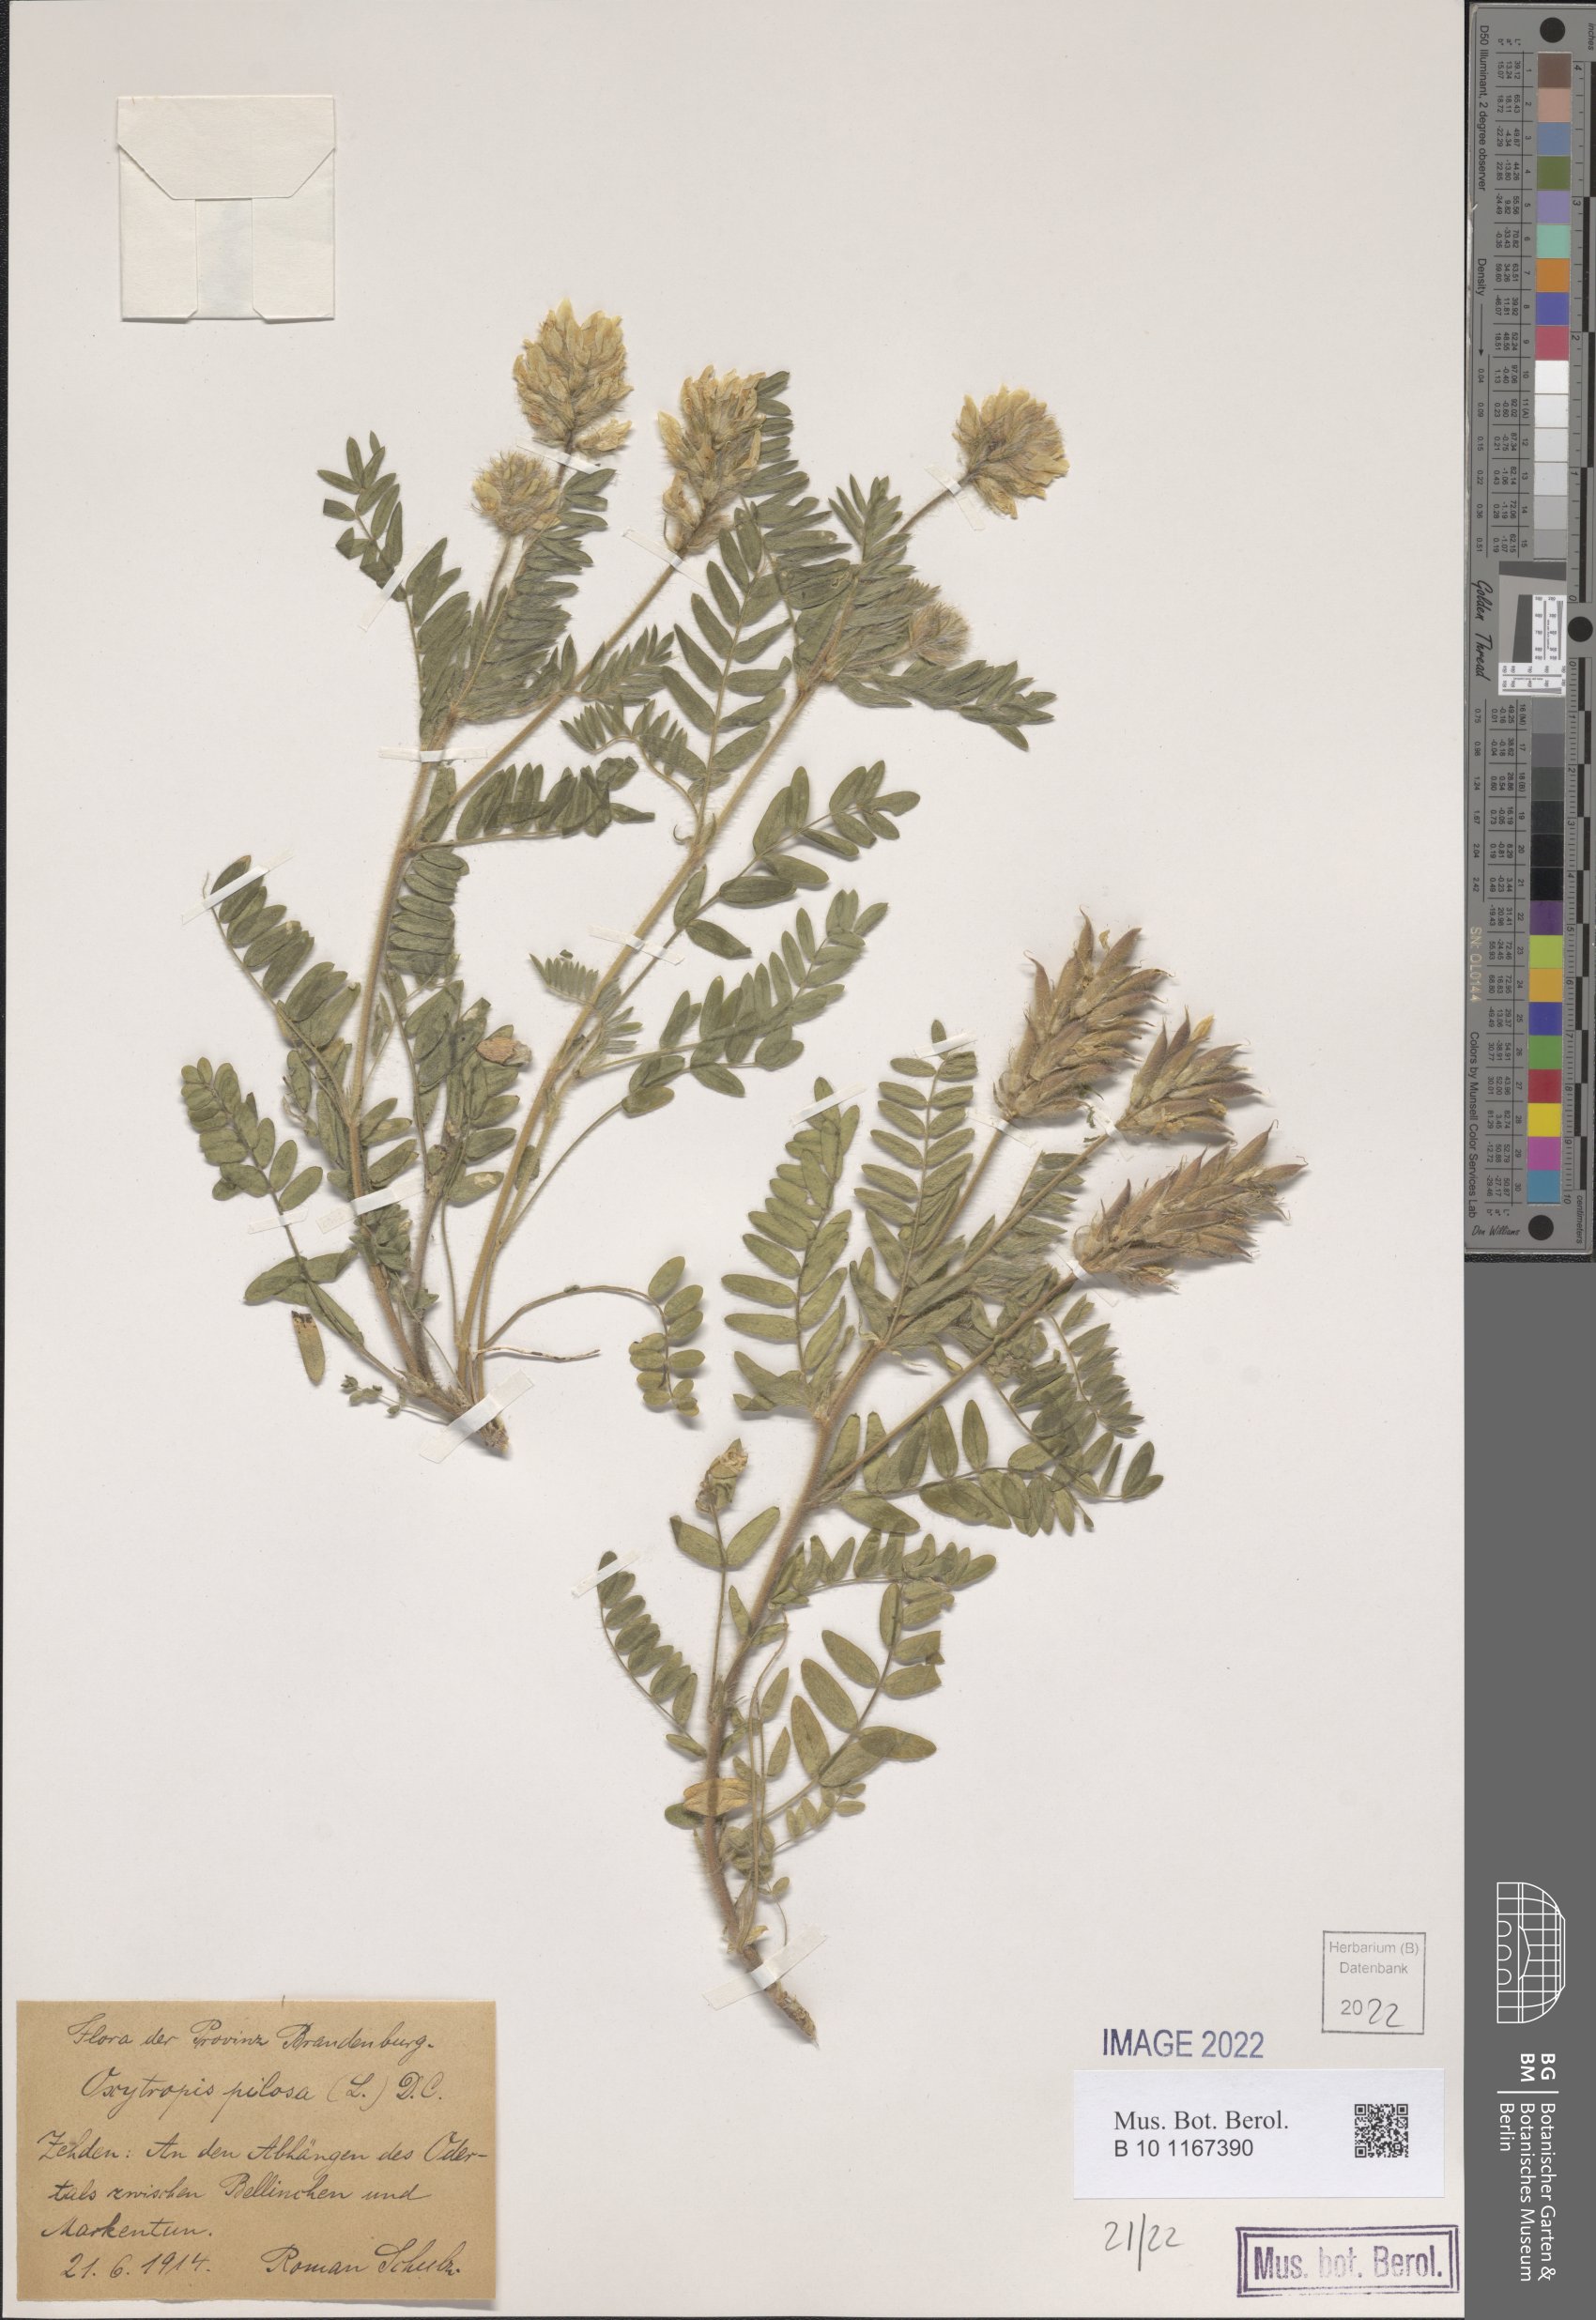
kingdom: Plantae
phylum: Tracheophyta
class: Magnoliopsida
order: Fabales
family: Fabaceae
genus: Oxytropis
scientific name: Oxytropis pilosa
